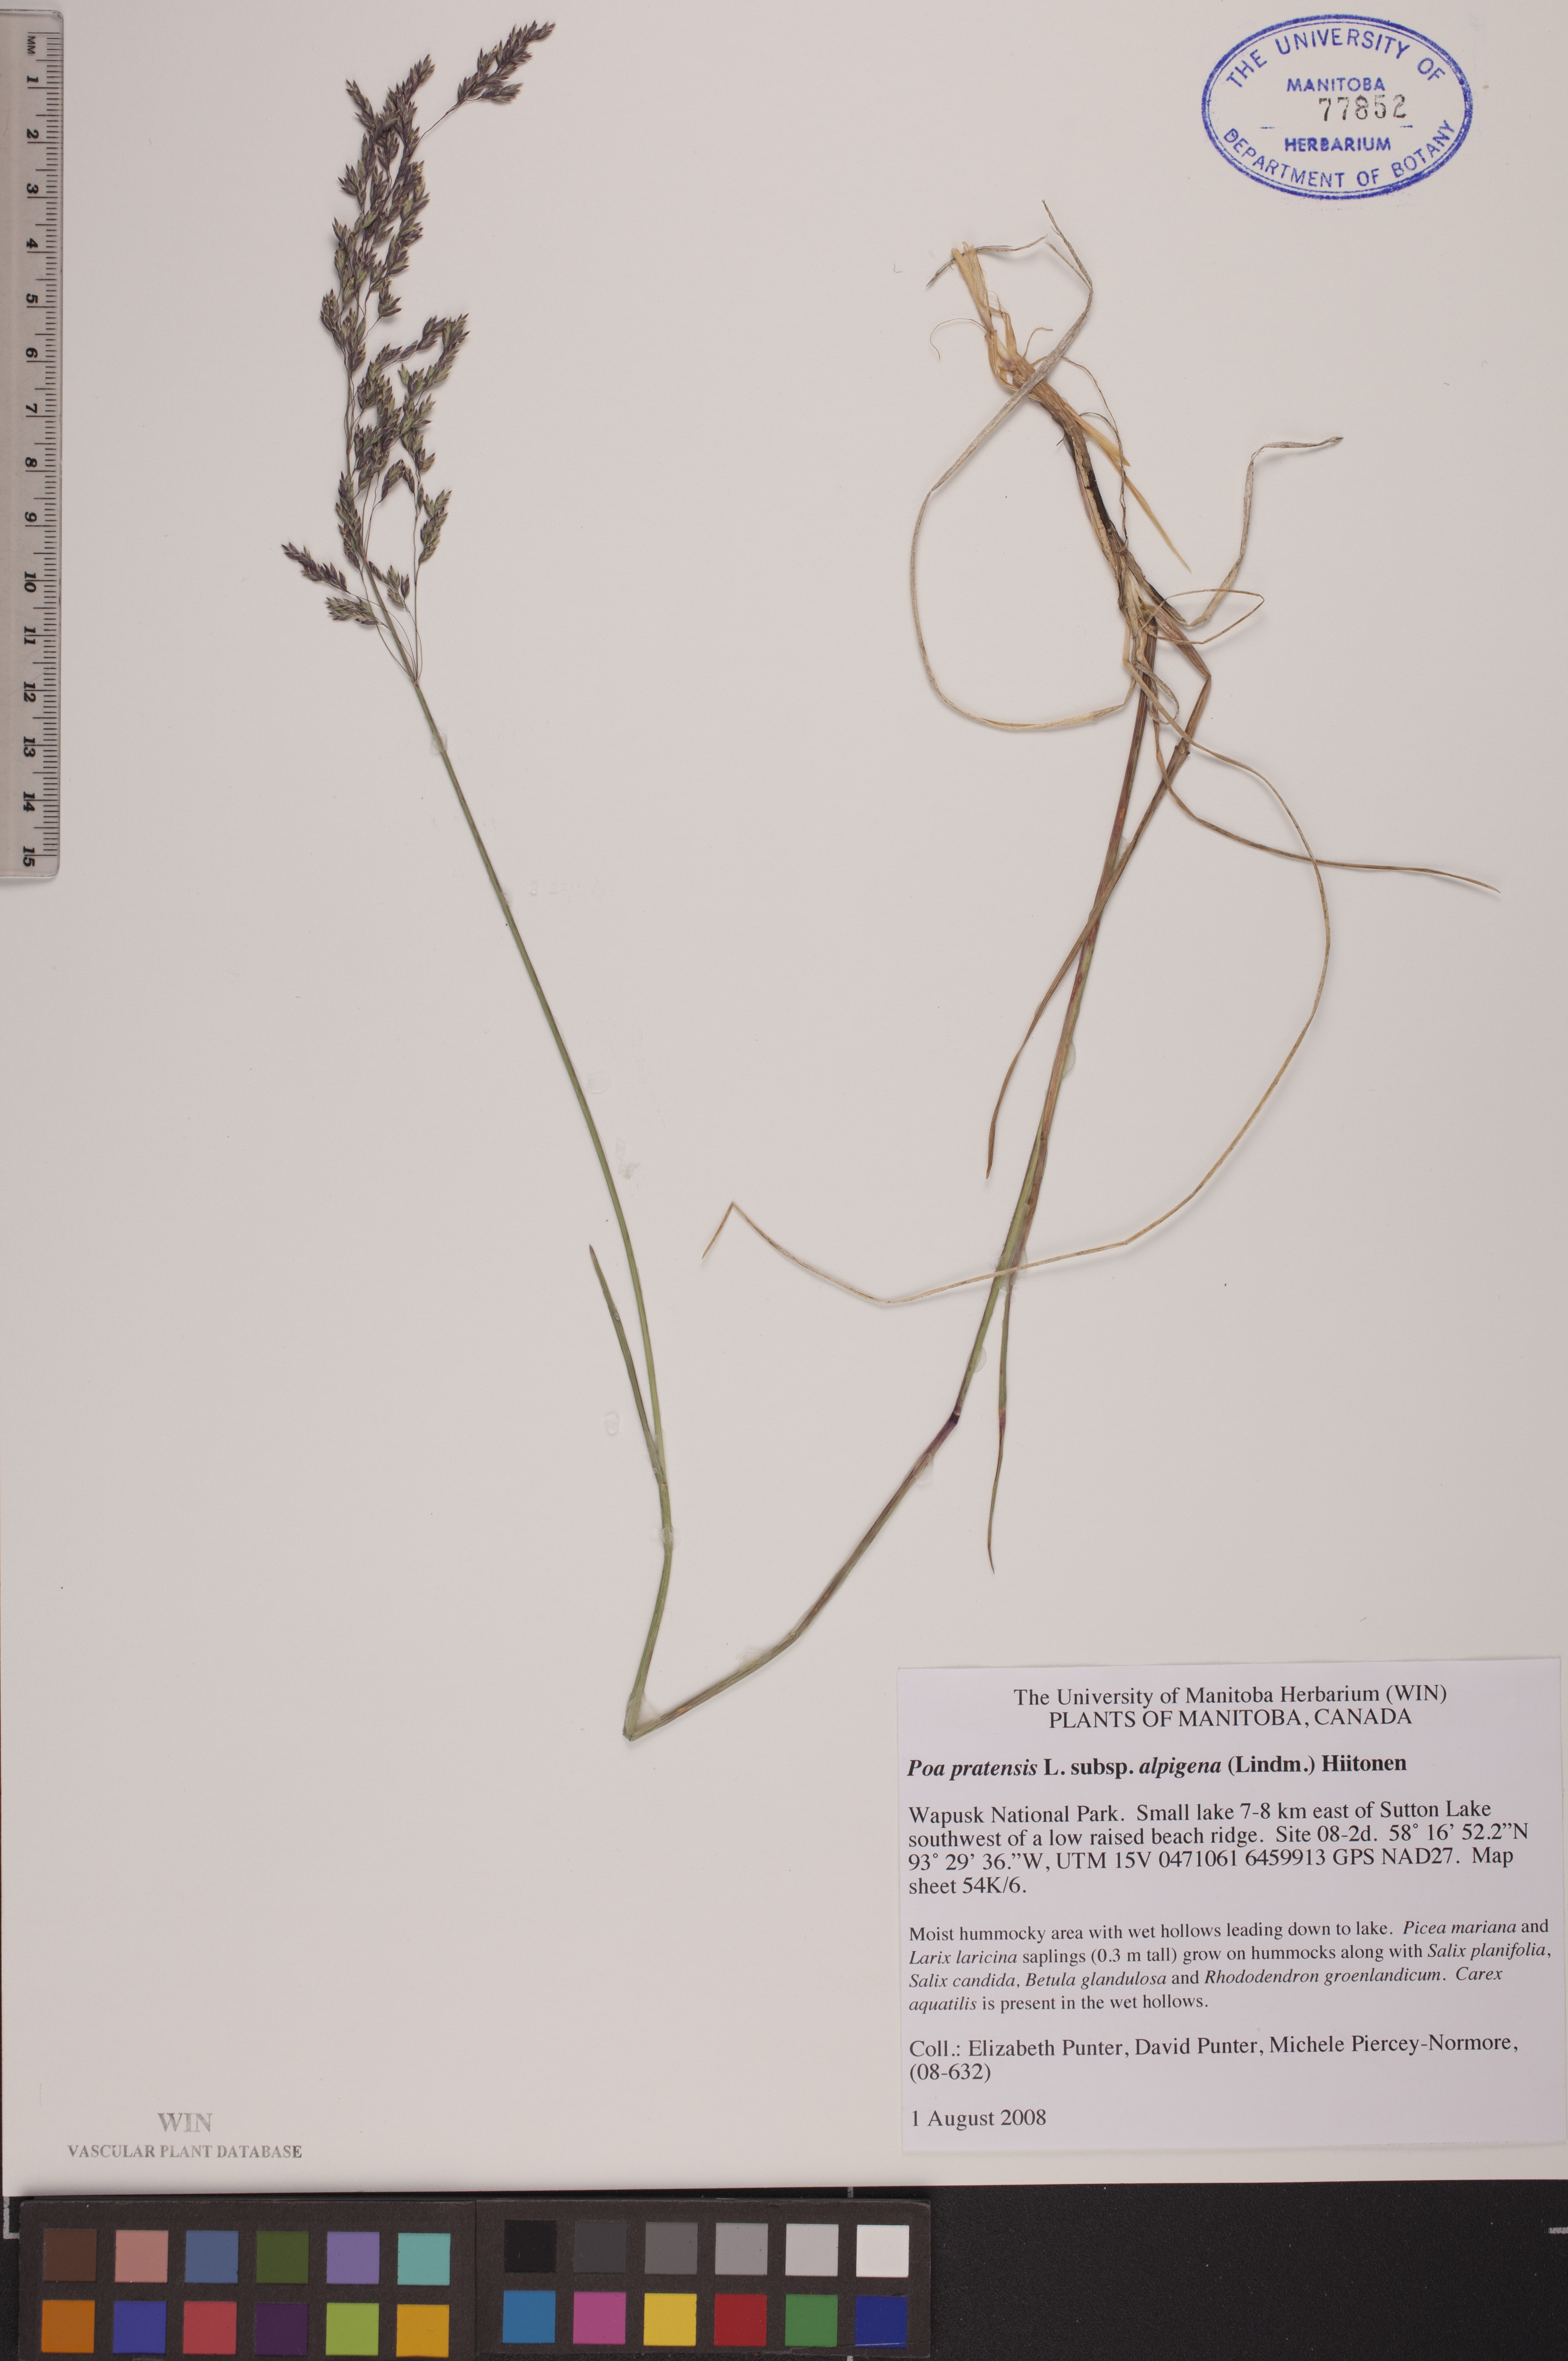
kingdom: Plantae
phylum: Tracheophyta
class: Liliopsida
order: Poales
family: Poaceae
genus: Poa
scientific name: Poa alpigena
